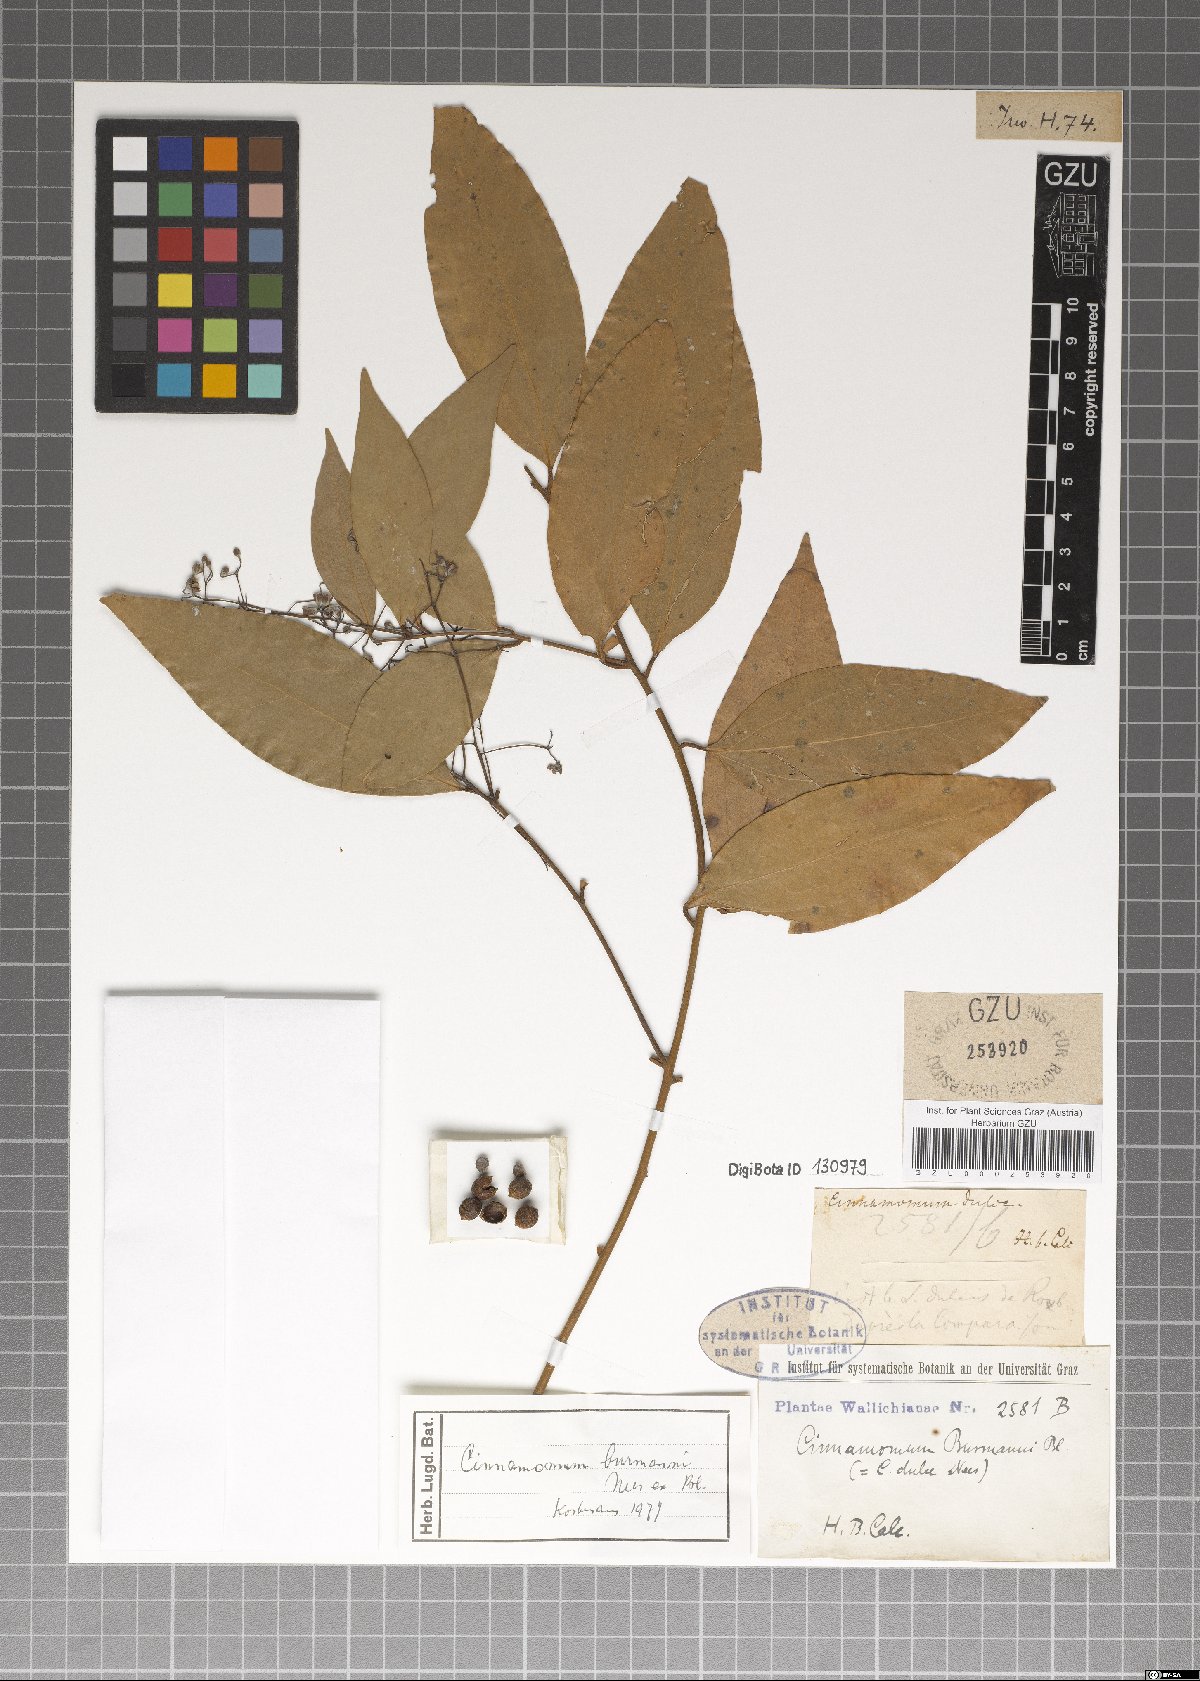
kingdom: Plantae
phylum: Tracheophyta
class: Magnoliopsida
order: Laurales
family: Lauraceae
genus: Cinnamomum
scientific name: Cinnamomum burmanni
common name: Padang cassia
